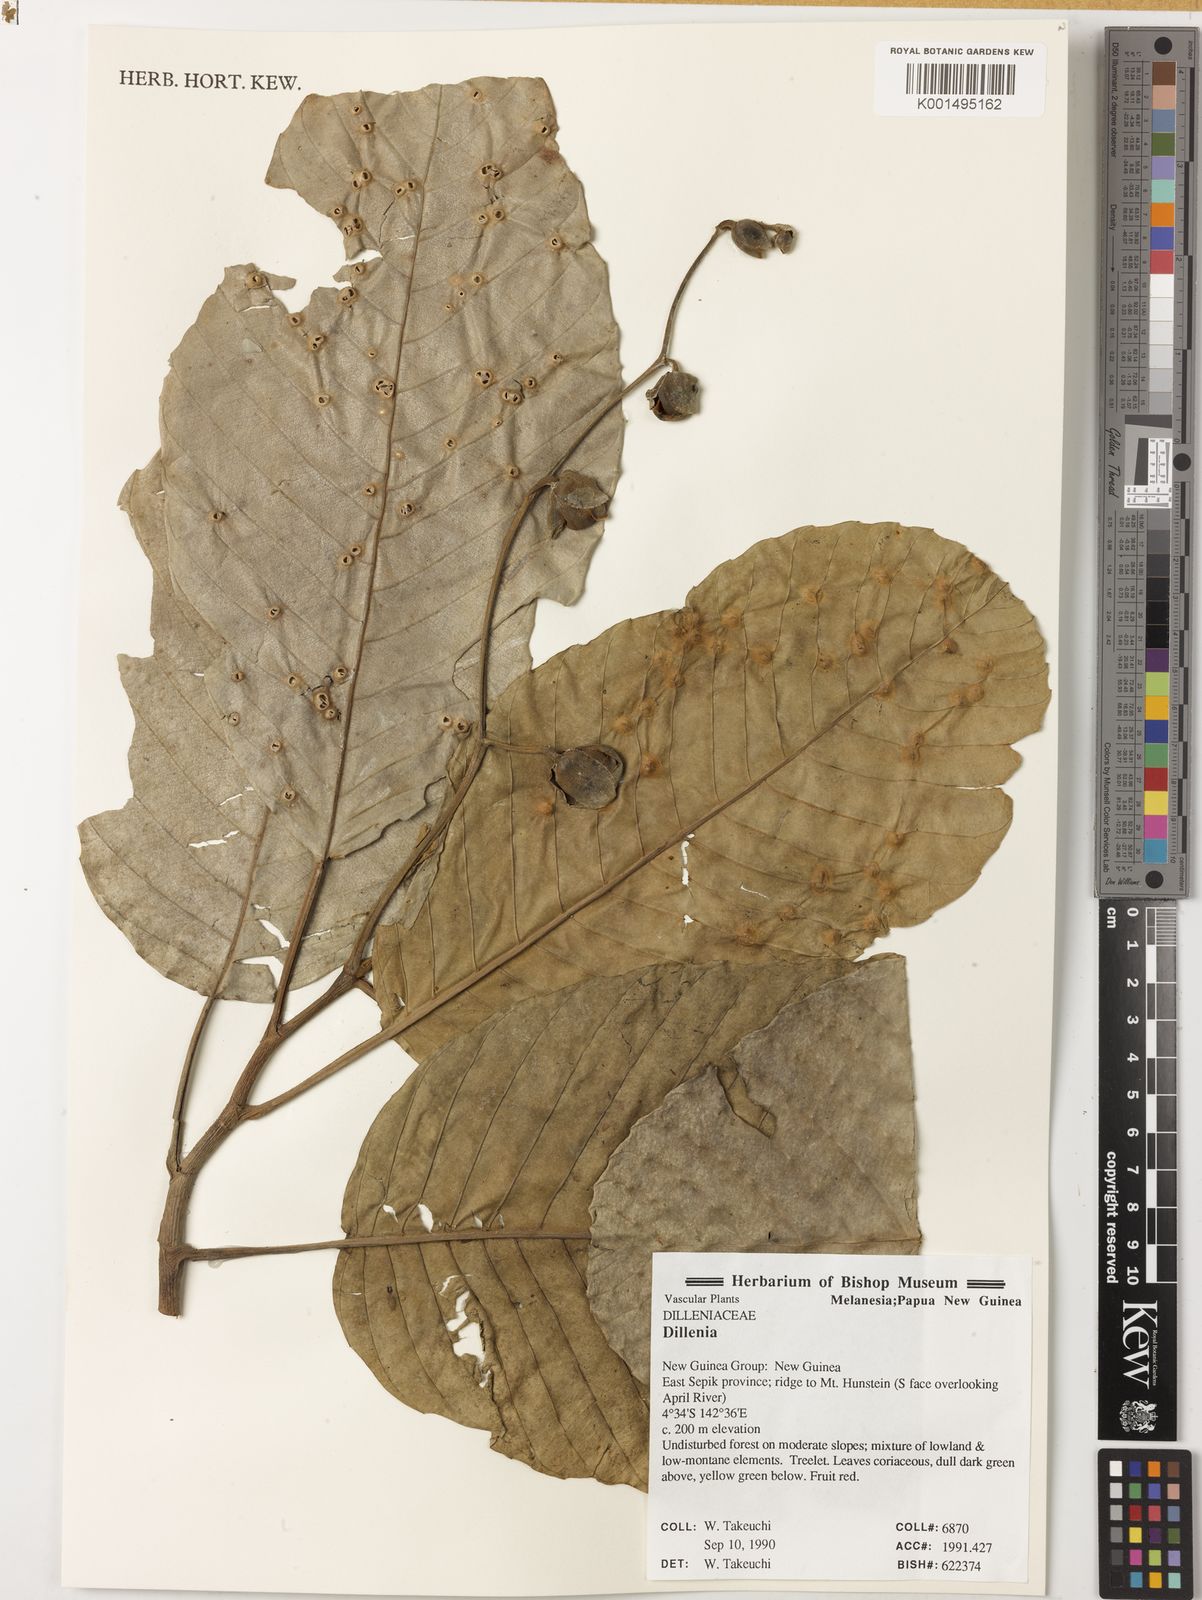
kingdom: Plantae
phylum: Tracheophyta
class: Magnoliopsida
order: Dilleniales
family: Dilleniaceae
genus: Dillenia
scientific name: Dillenia
